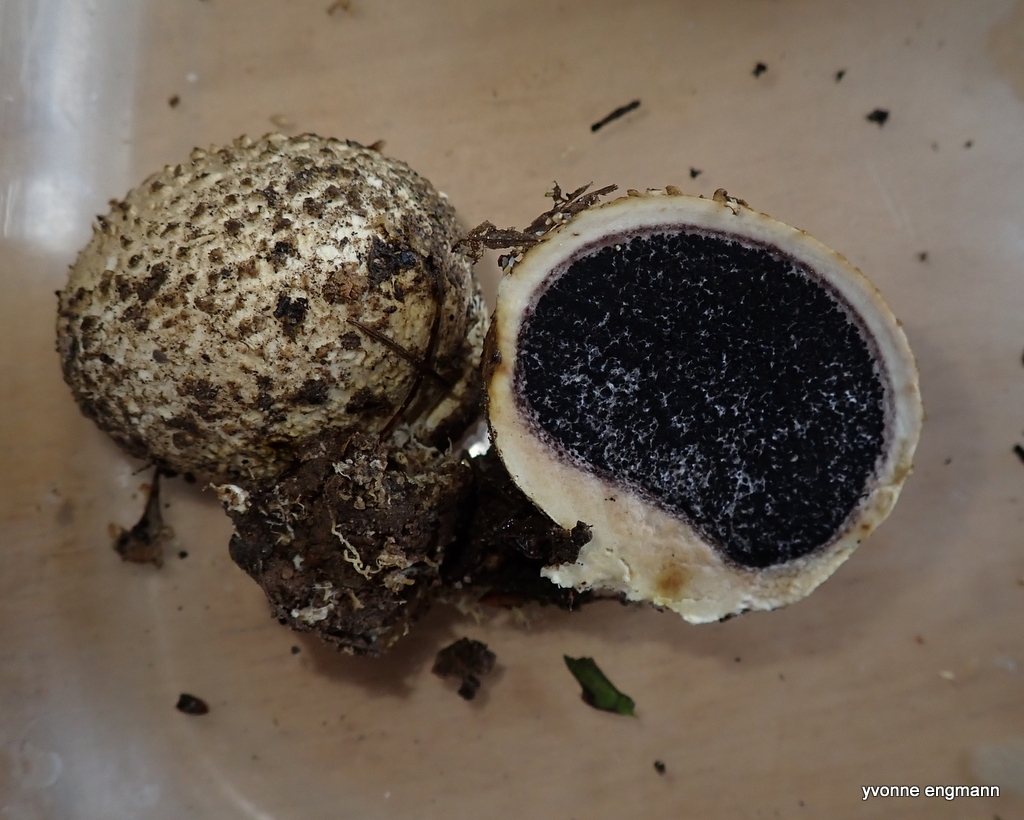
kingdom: Fungi
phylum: Basidiomycota
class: Agaricomycetes
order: Boletales
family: Sclerodermataceae
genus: Scleroderma
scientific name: Scleroderma citrinum
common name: almindelig bruskbold
